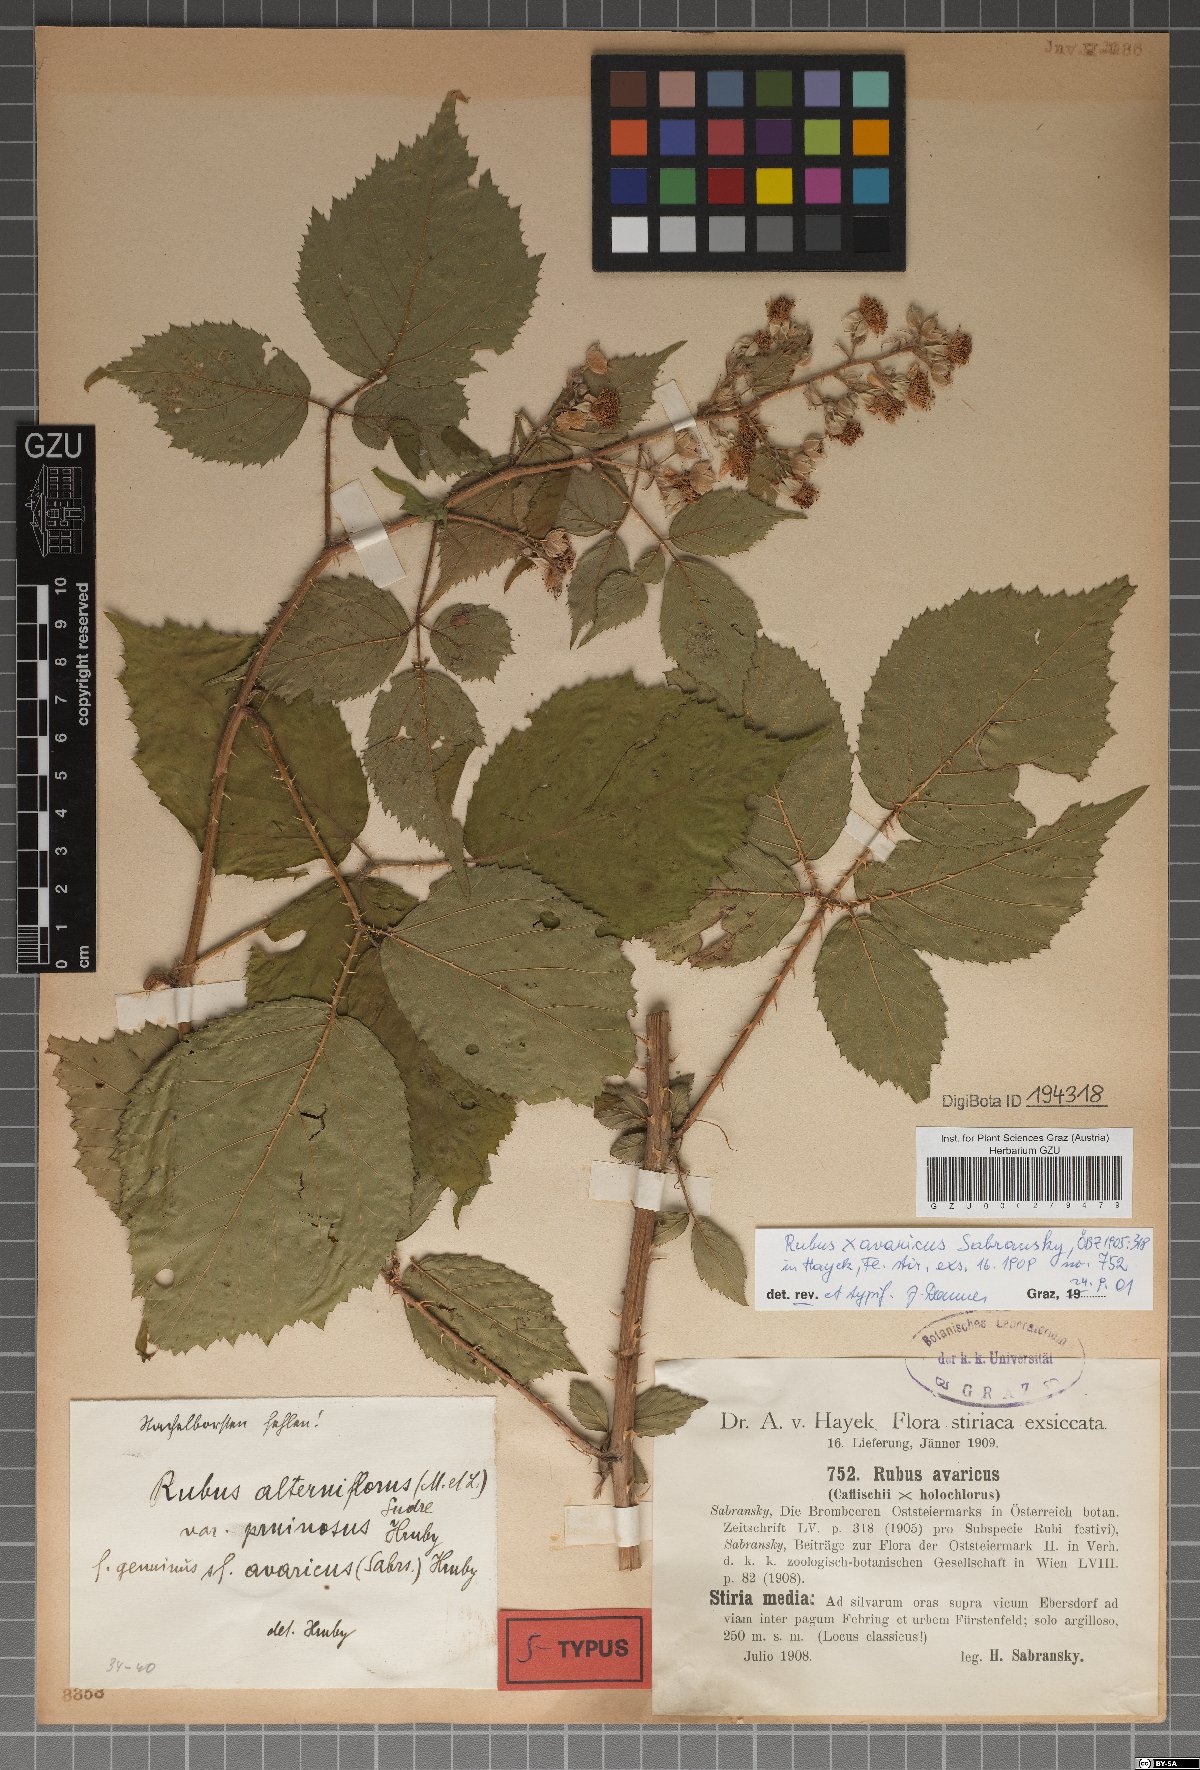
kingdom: Plantae
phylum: Tracheophyta
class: Magnoliopsida
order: Rosales
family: Rosaceae
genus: Rubus
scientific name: Rubus avaricus
